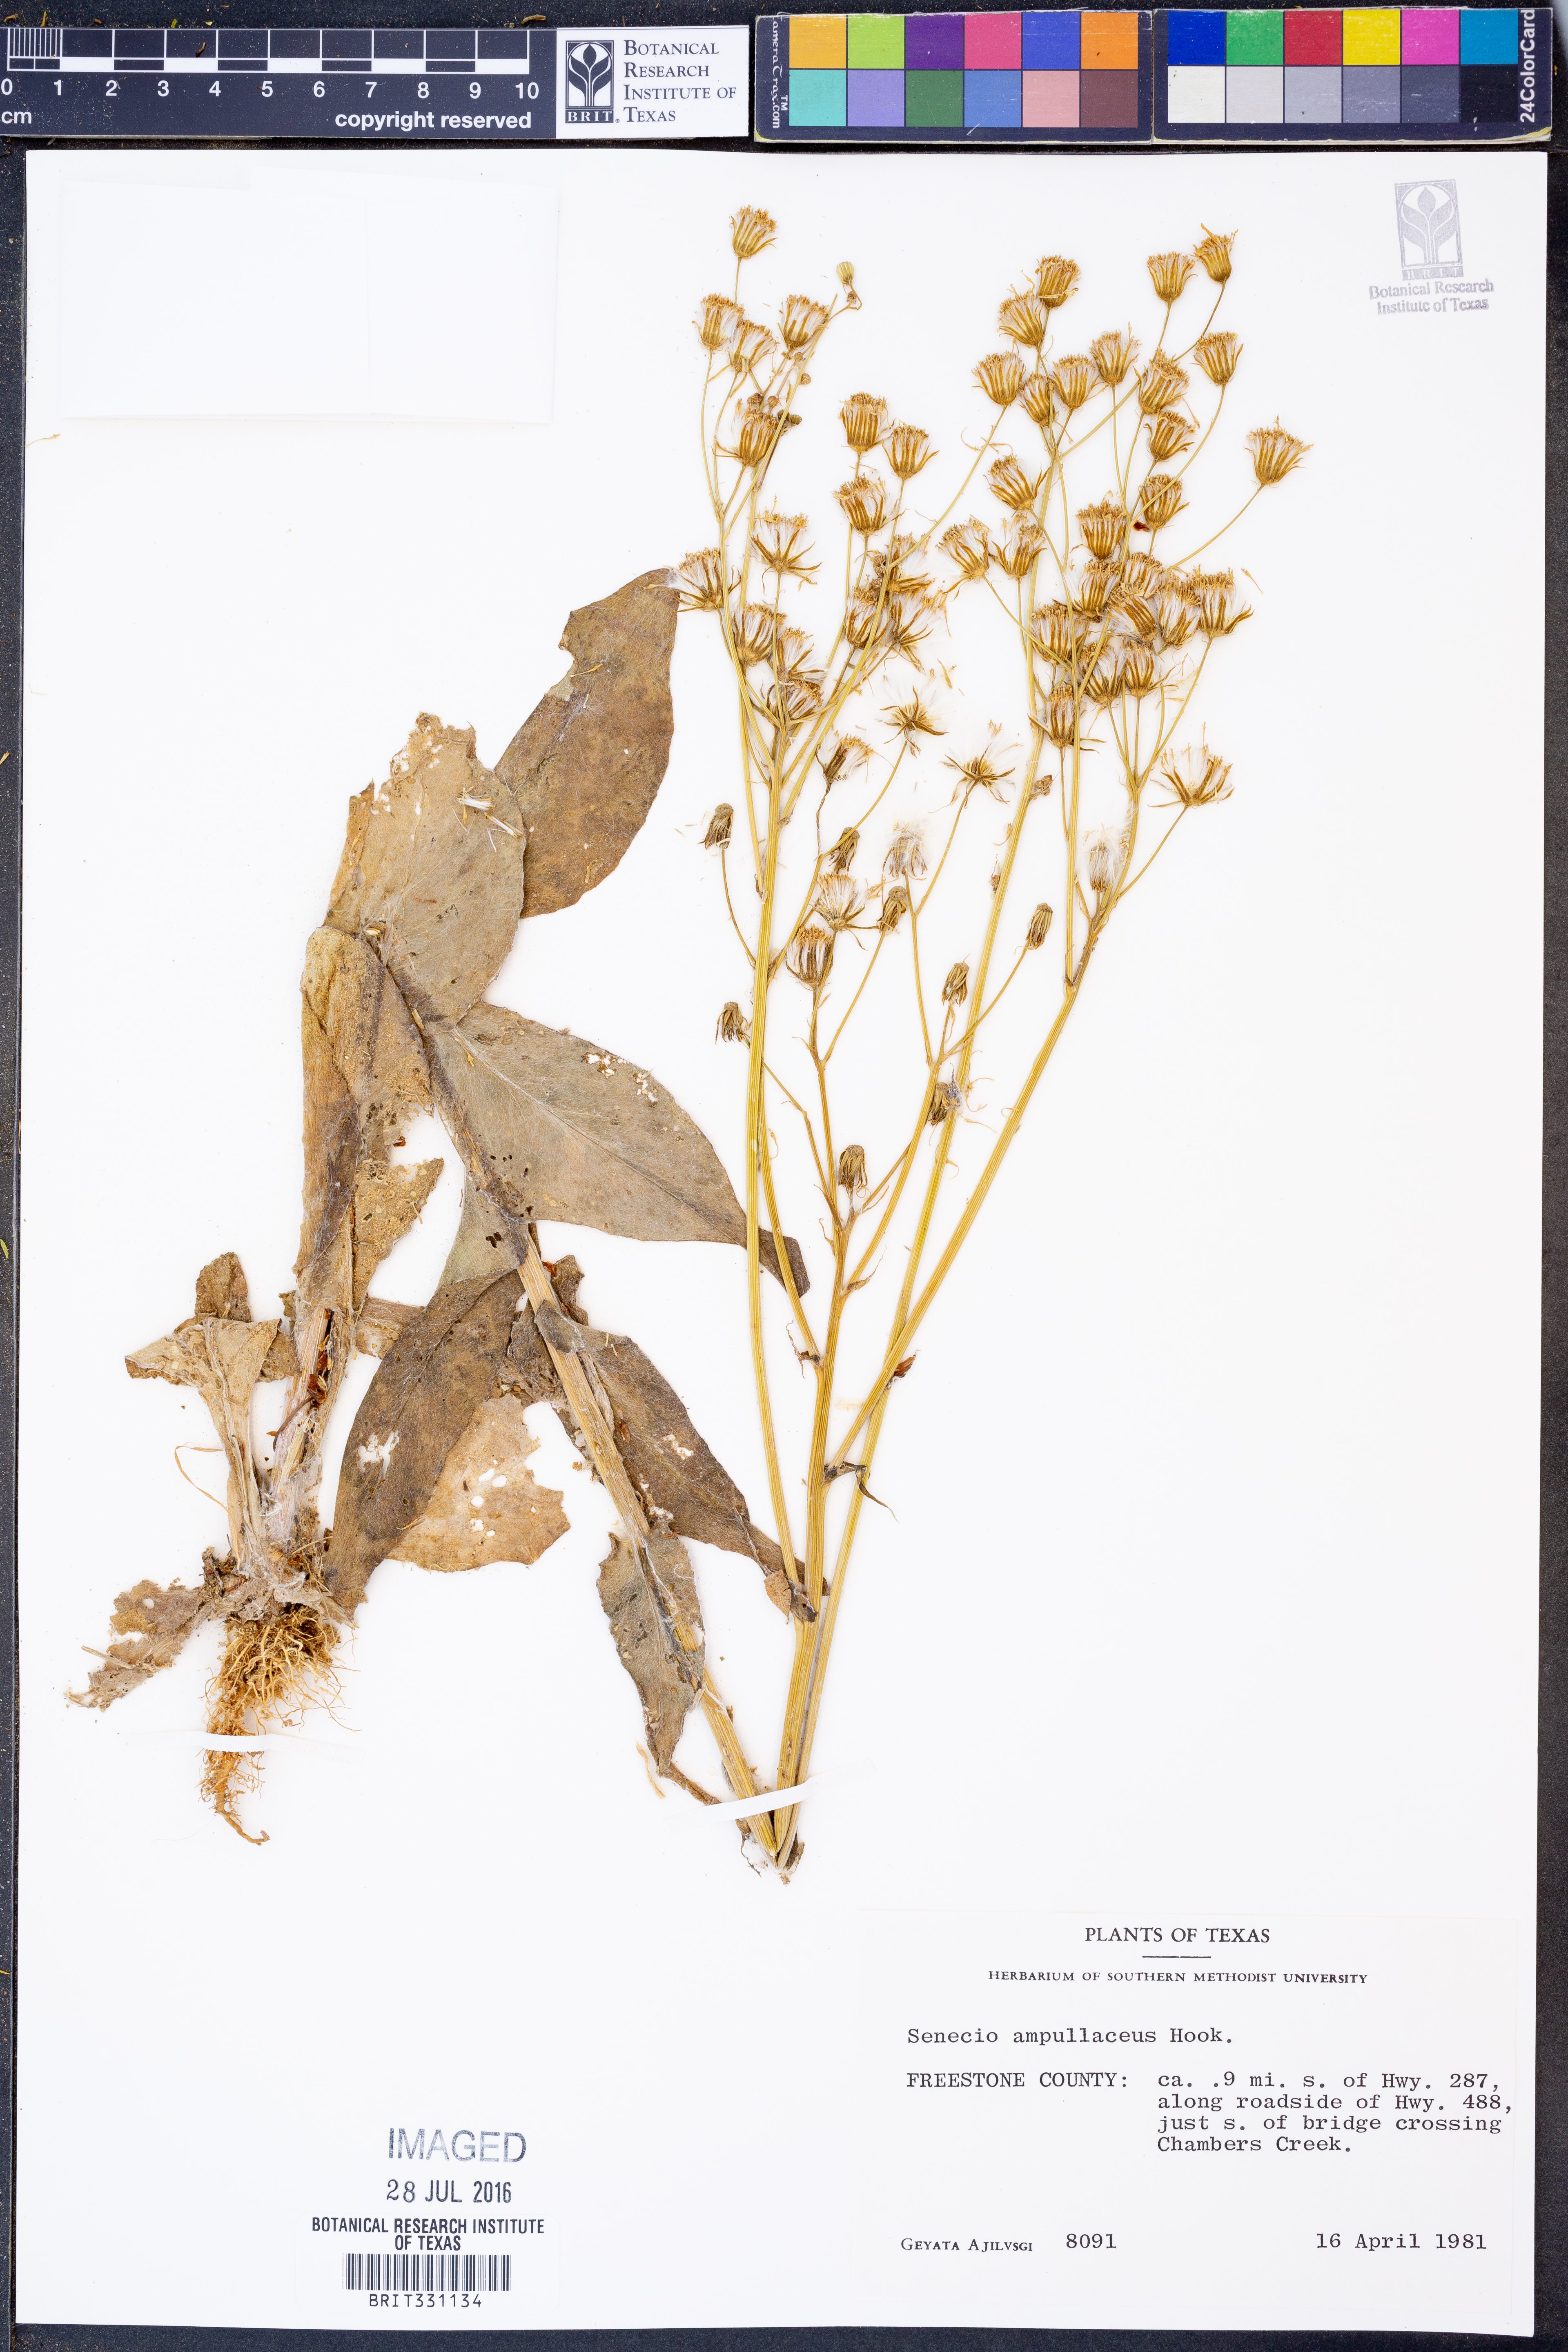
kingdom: Plantae
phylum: Tracheophyta
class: Magnoliopsida
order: Asterales
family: Asteraceae
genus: Senecio
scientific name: Senecio ampullaceus
